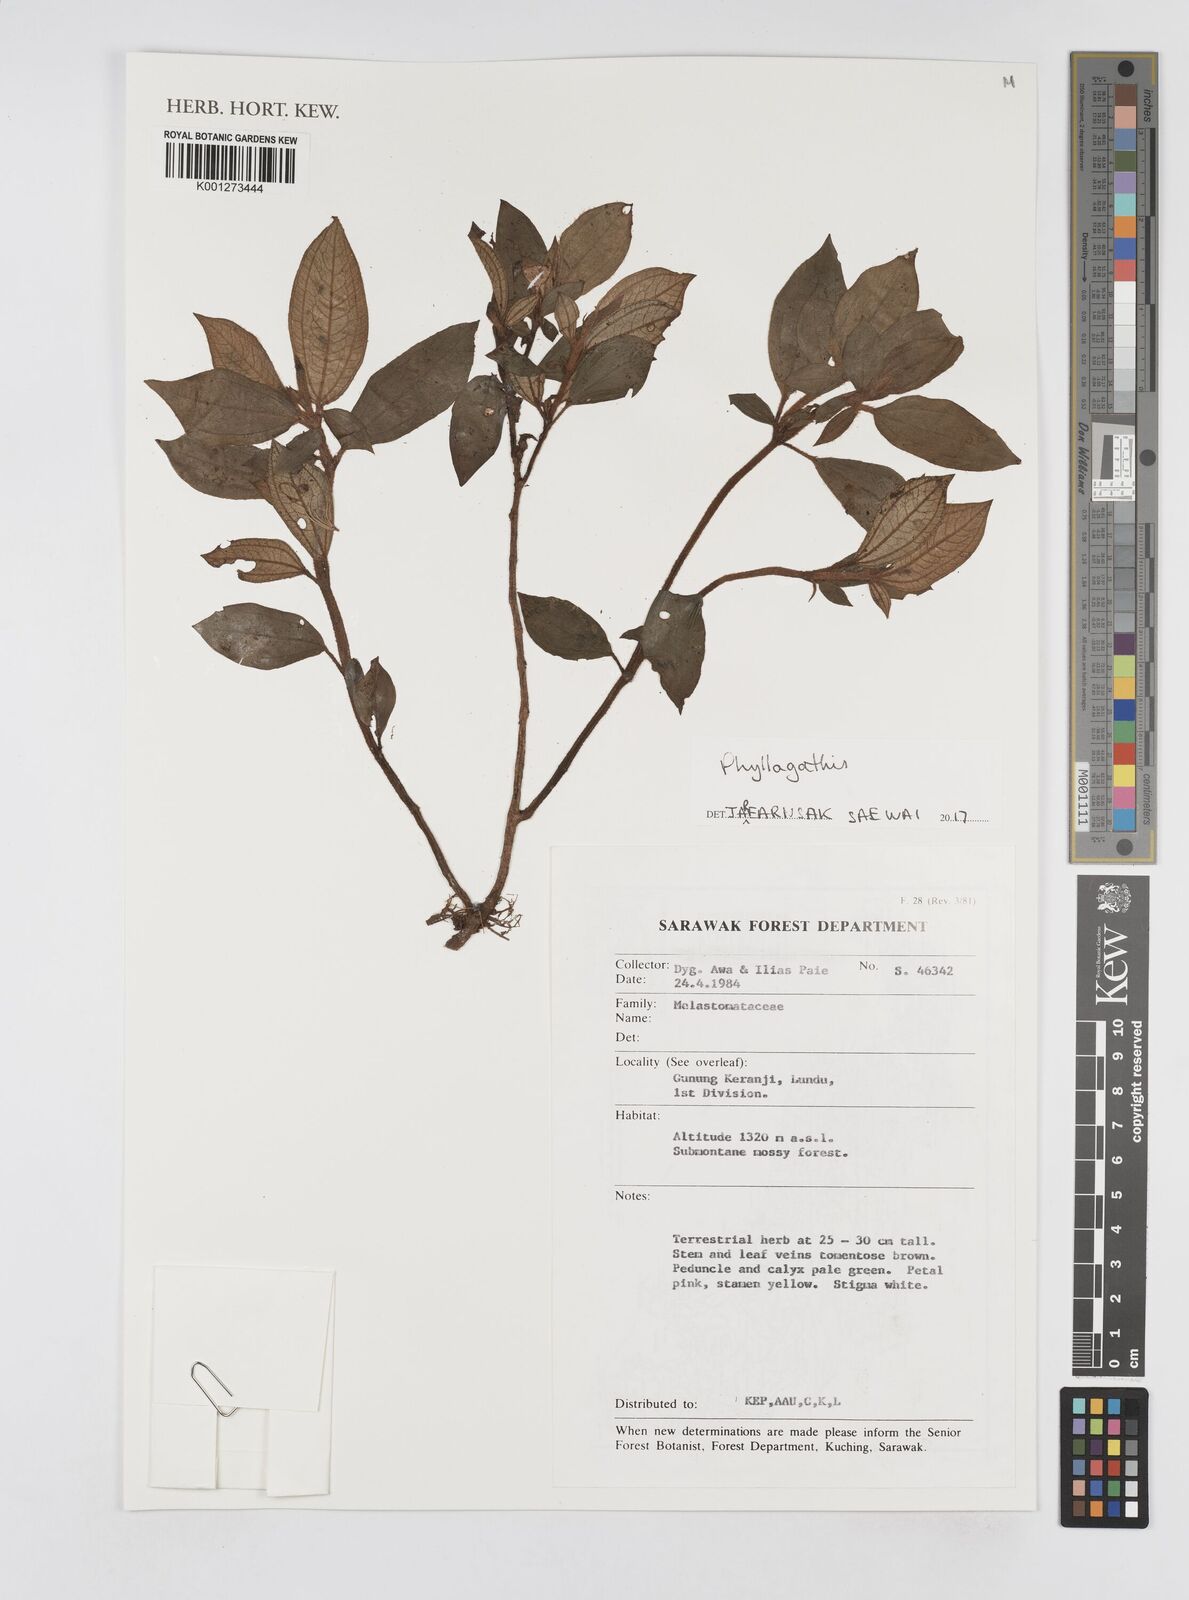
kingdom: Plantae
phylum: Tracheophyta
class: Magnoliopsida
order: Myrtales
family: Melastomataceae
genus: Phyllagathis
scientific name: Phyllagathis
